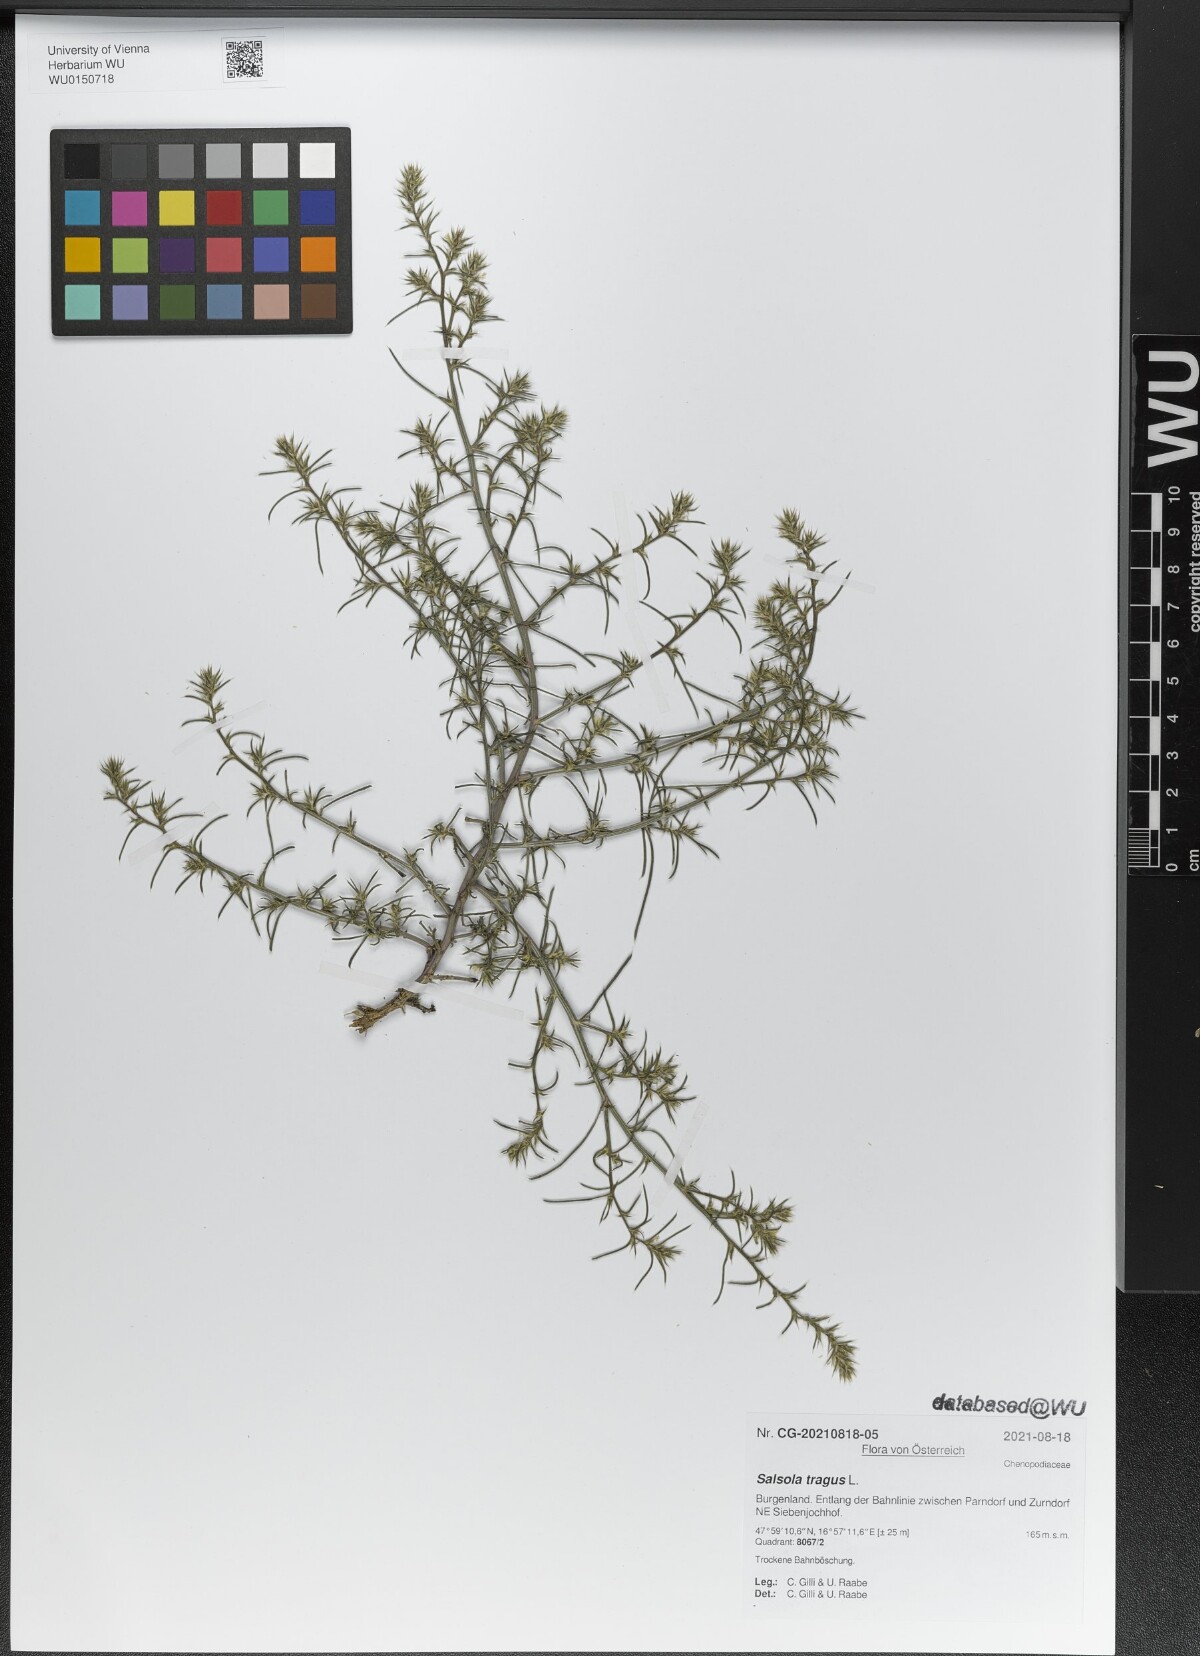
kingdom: Plantae
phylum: Tracheophyta
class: Magnoliopsida
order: Caryophyllales
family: Amaranthaceae
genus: Salsola
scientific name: Salsola tragus
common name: Prickly russian thistle
